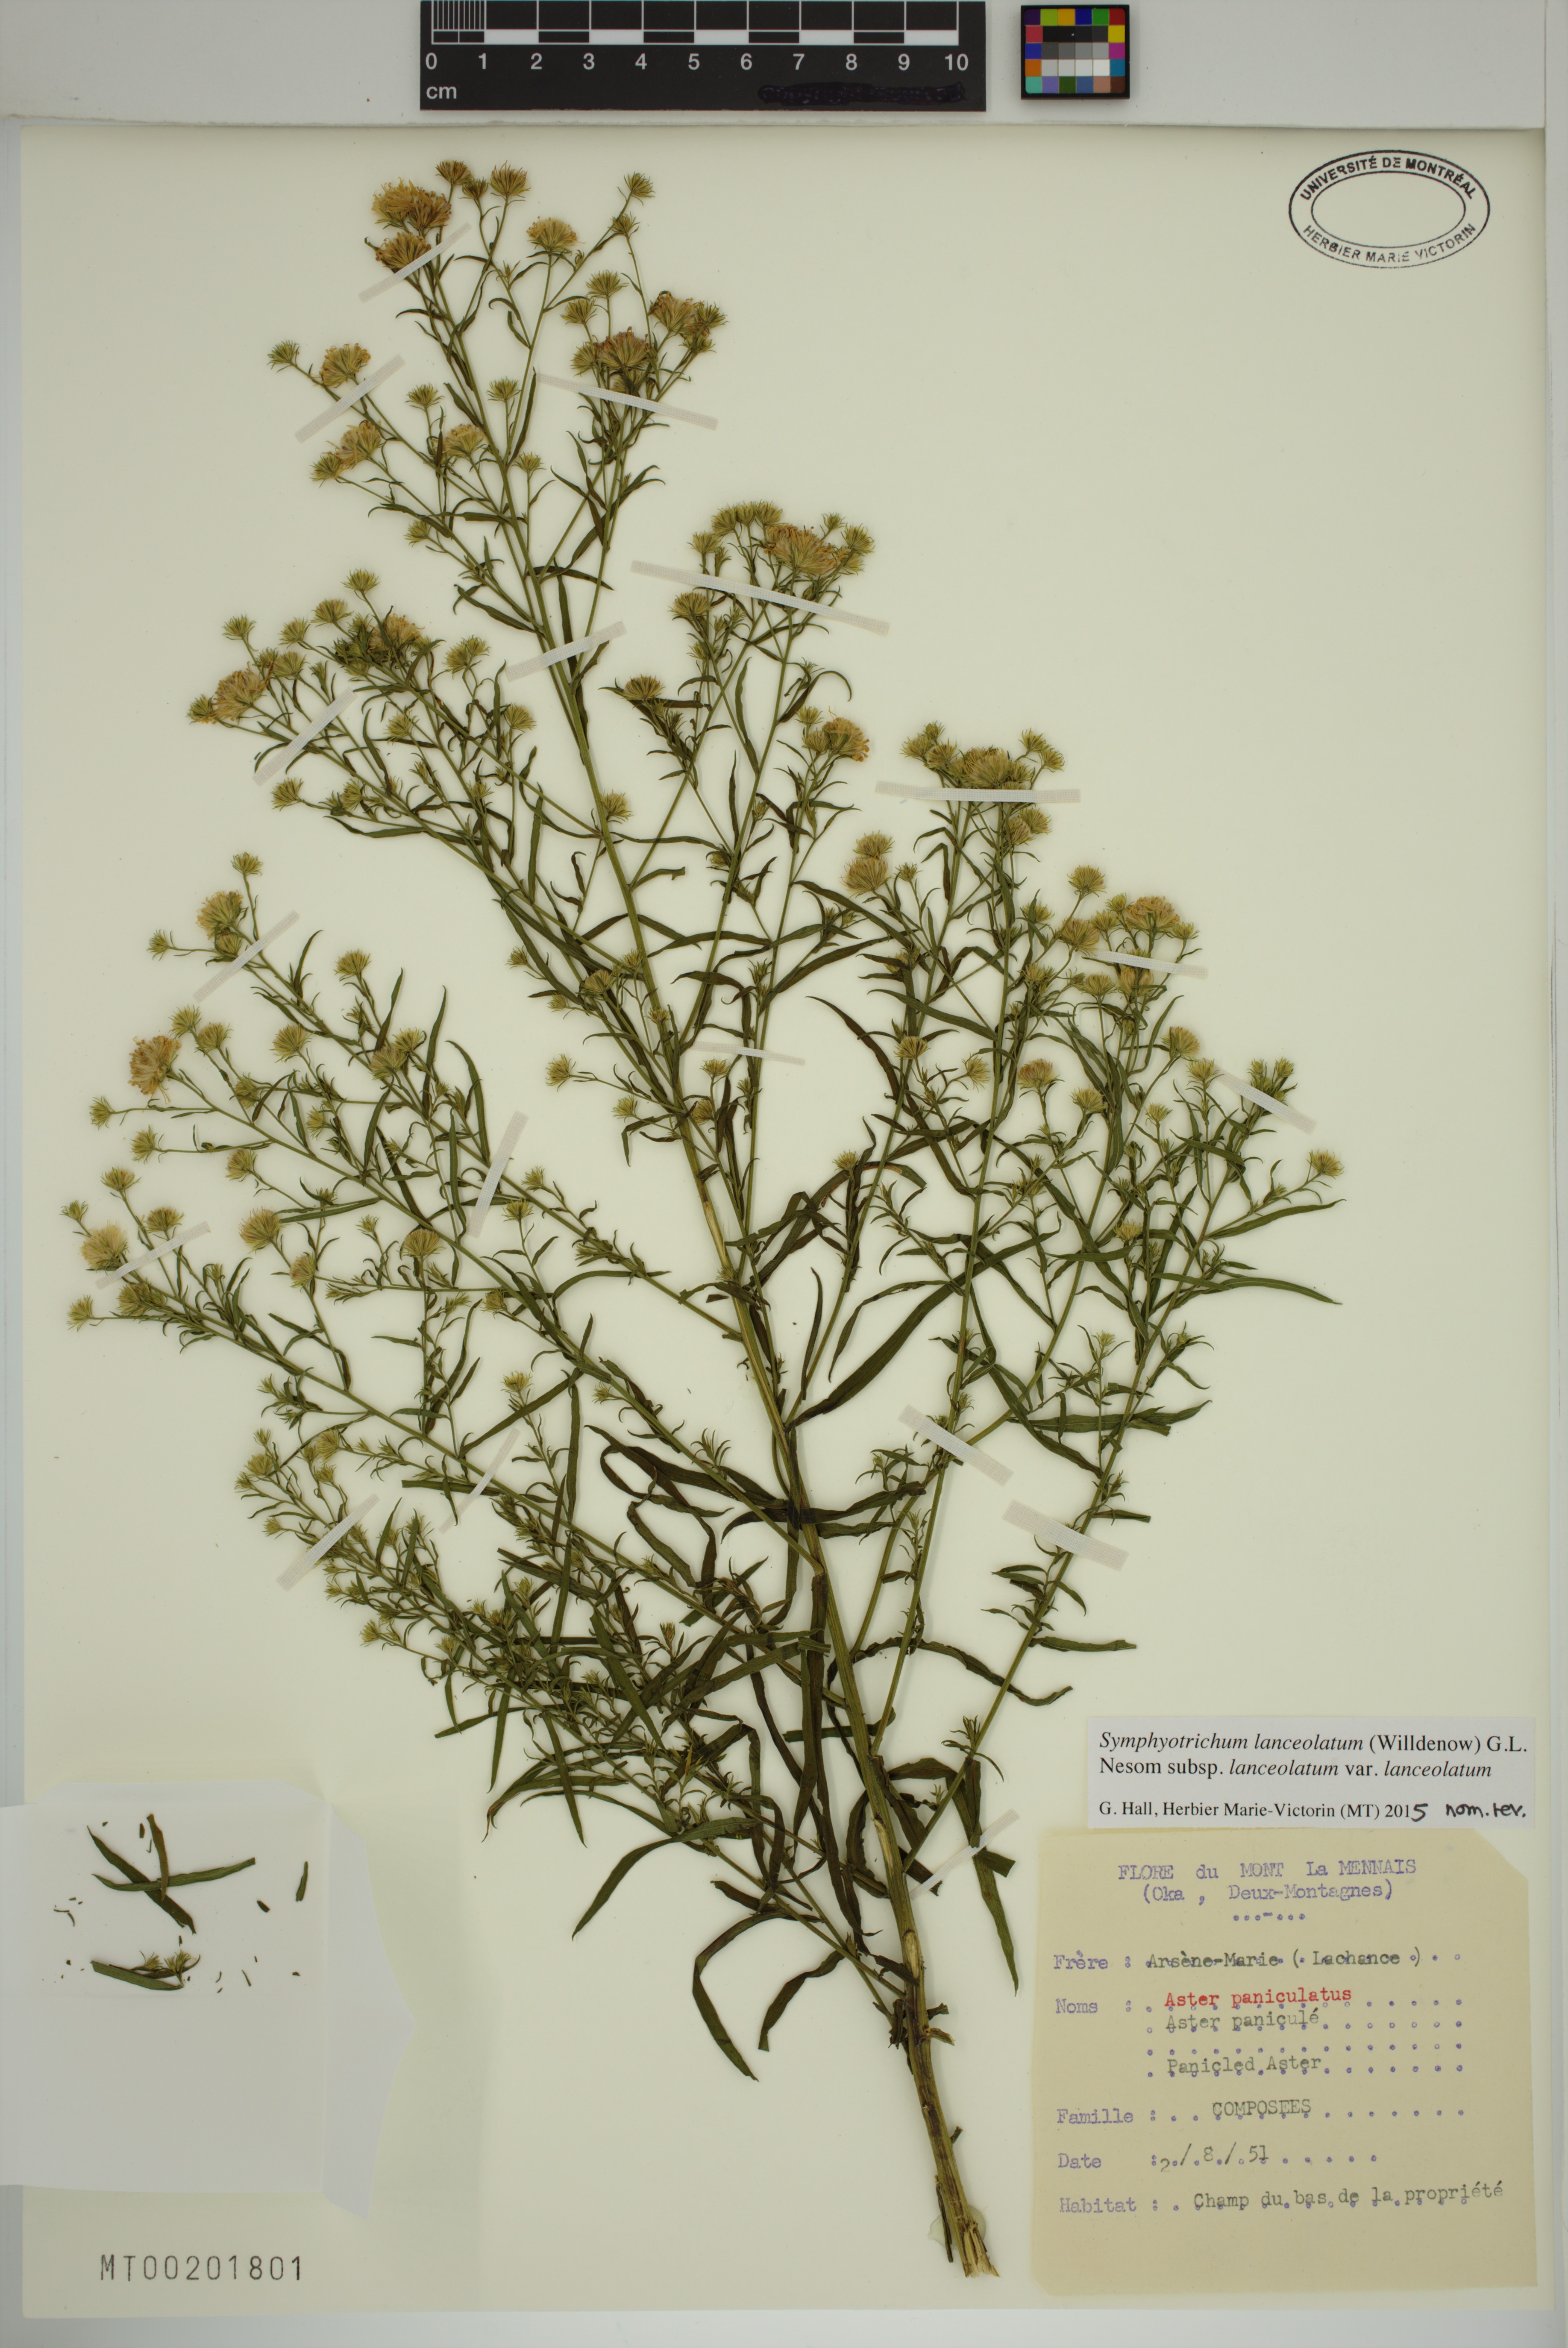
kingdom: Plantae
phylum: Tracheophyta
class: Magnoliopsida
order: Asterales
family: Asteraceae
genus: Symphyotrichum
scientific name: Symphyotrichum lanceolatum
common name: Panicled aster
